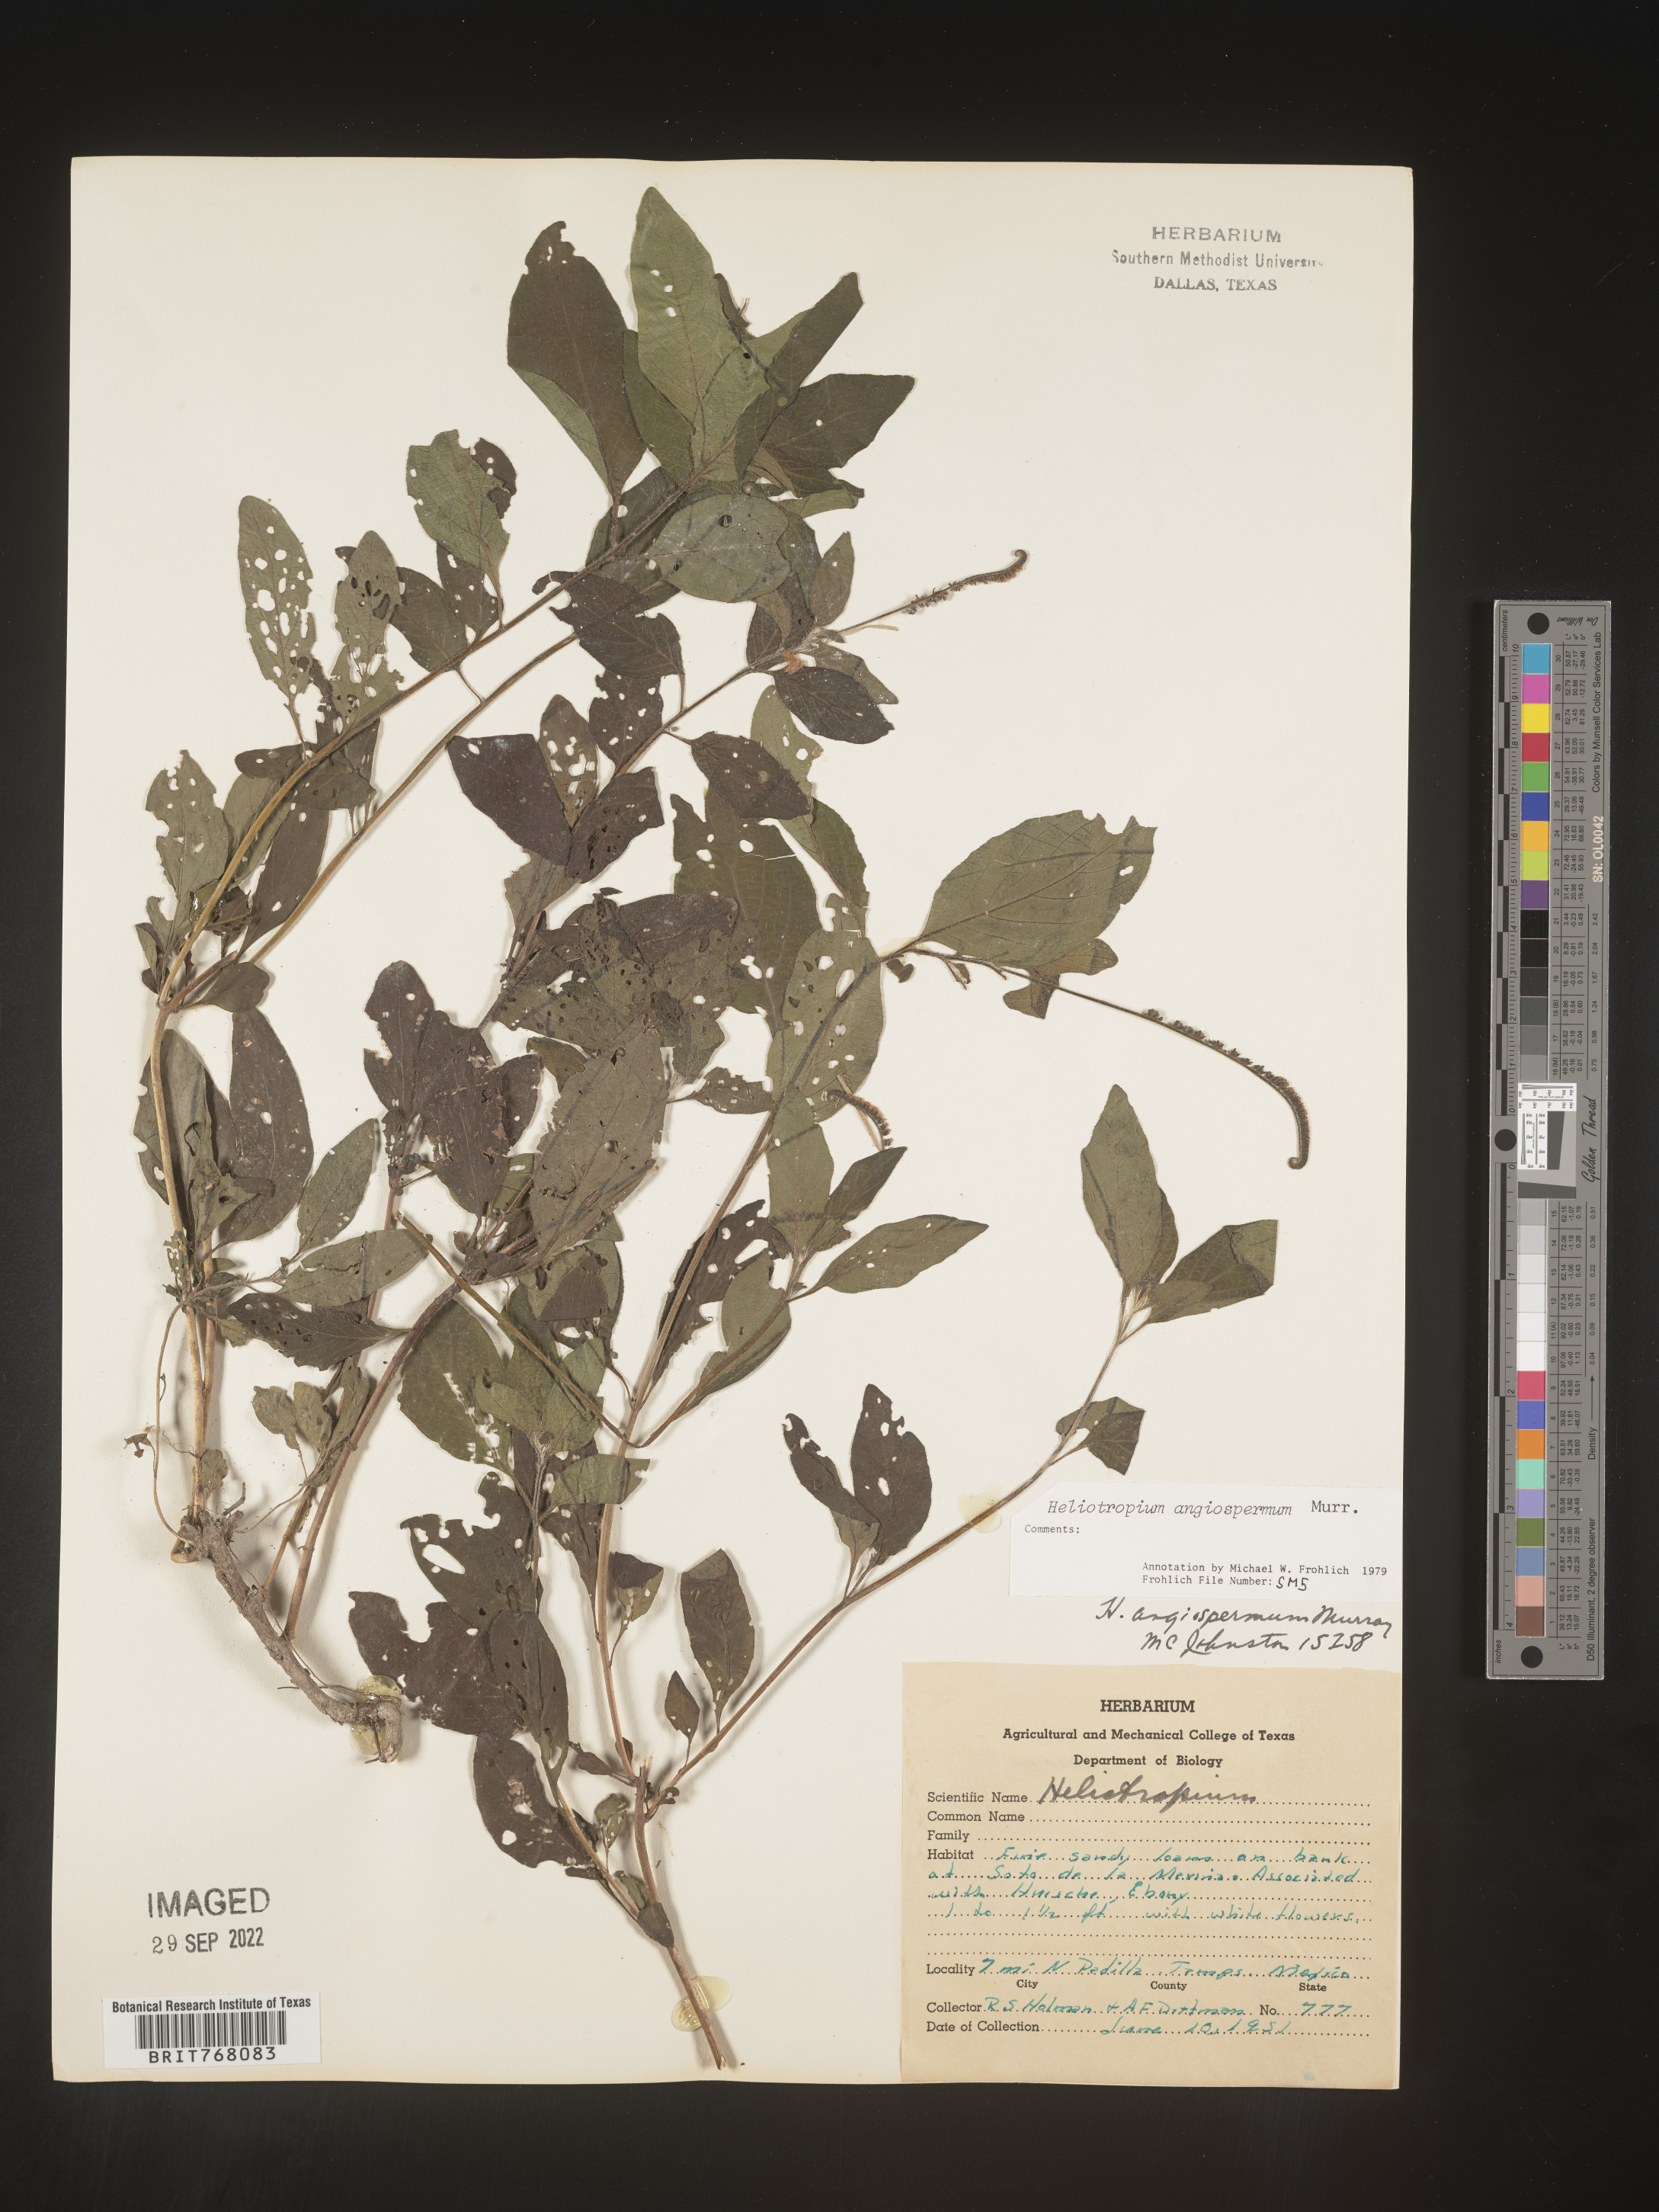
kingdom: Plantae
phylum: Tracheophyta
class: Magnoliopsida
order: Boraginales
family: Heliotropiaceae
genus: Heliotropium
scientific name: Heliotropium
